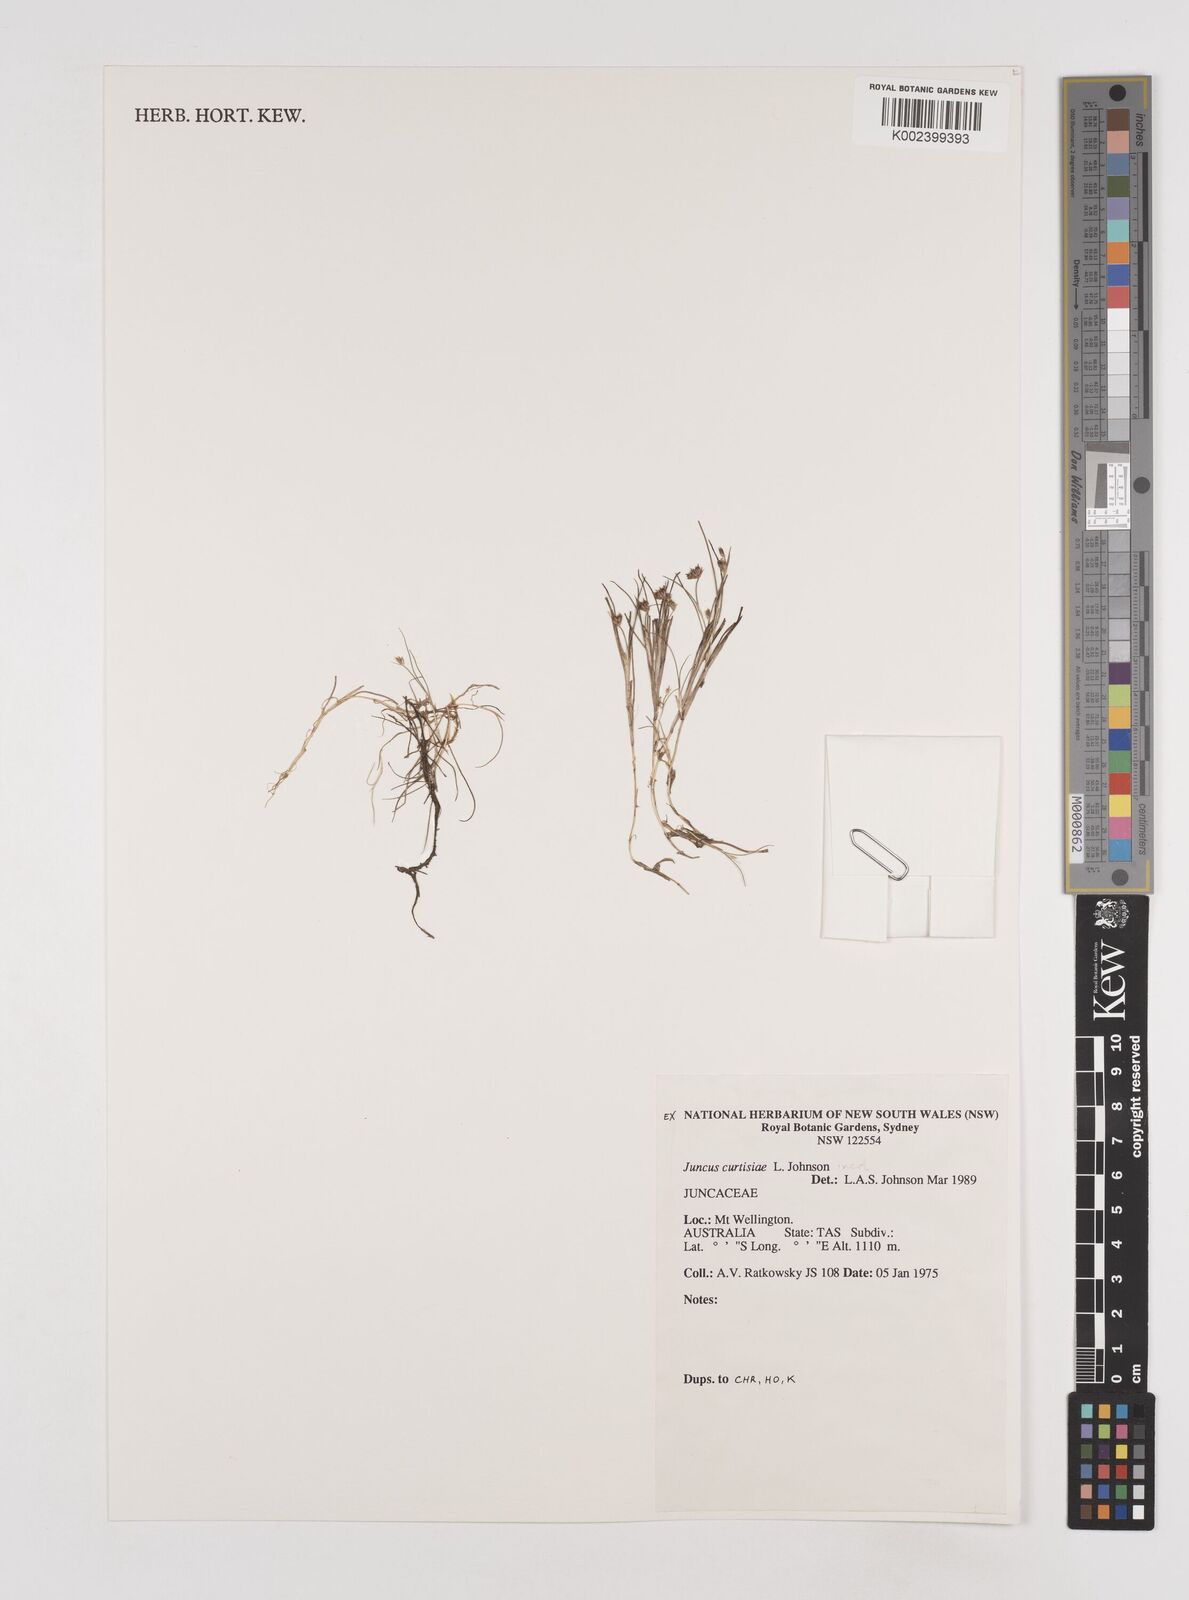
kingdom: Plantae
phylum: Tracheophyta
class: Liliopsida
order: Poales
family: Juncaceae
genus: Juncus
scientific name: Juncus curtisiae
